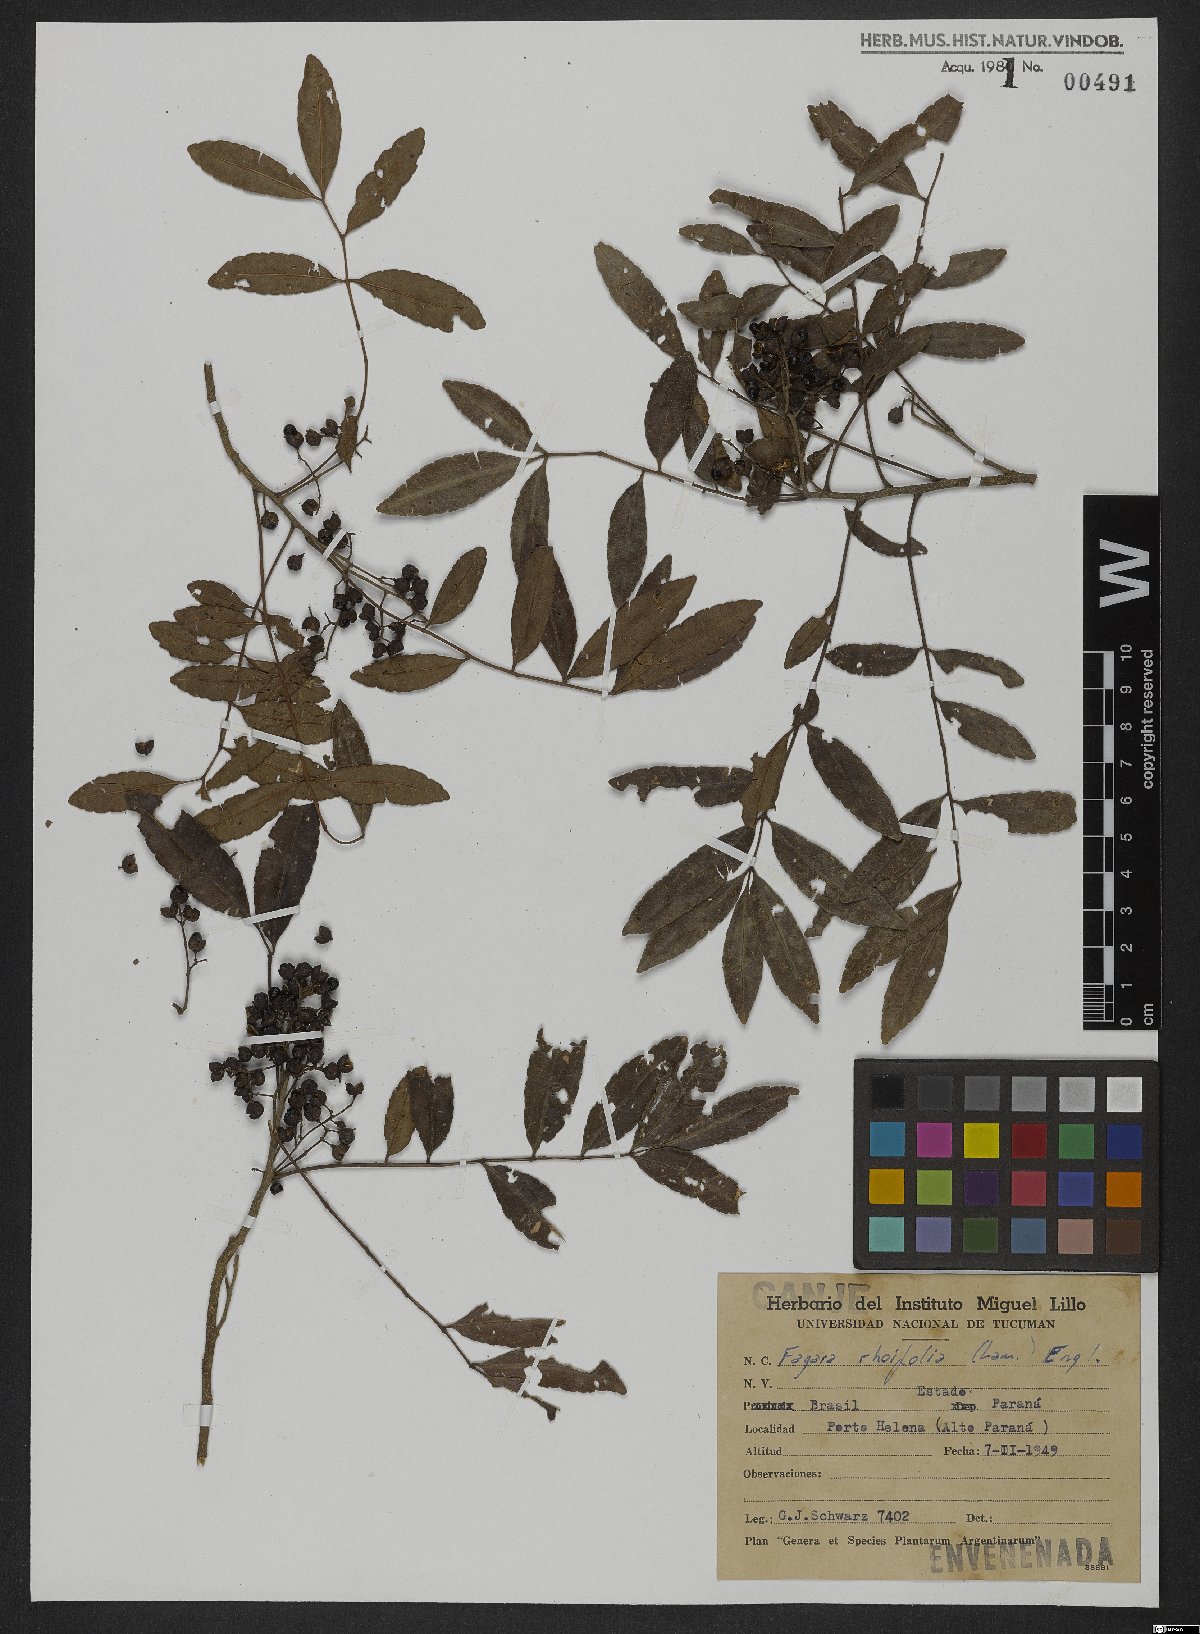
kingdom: Plantae
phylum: Tracheophyta
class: Magnoliopsida
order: Sapindales
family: Rutaceae
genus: Zanthoxylum
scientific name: Zanthoxylum rhoifolium
